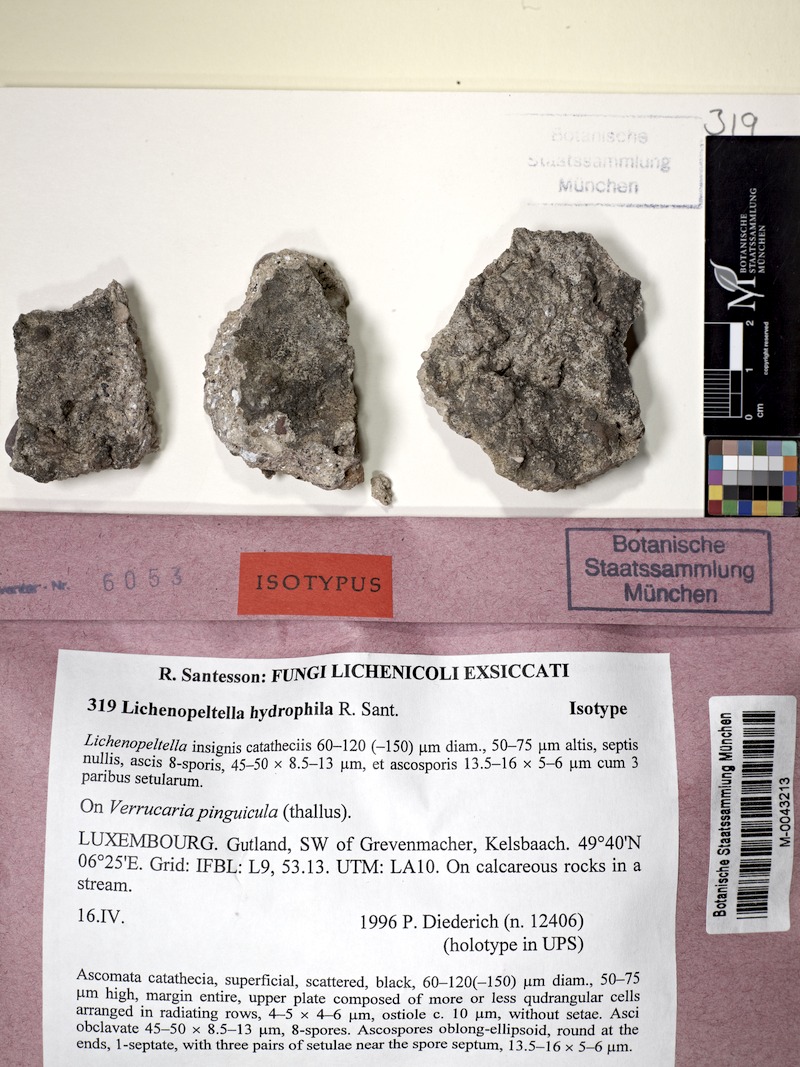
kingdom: Fungi
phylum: Ascomycota
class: Dothideomycetes
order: Microthyriales
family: Microthyriaceae
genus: Lichenopeltella
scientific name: Lichenopeltella hydrophila
